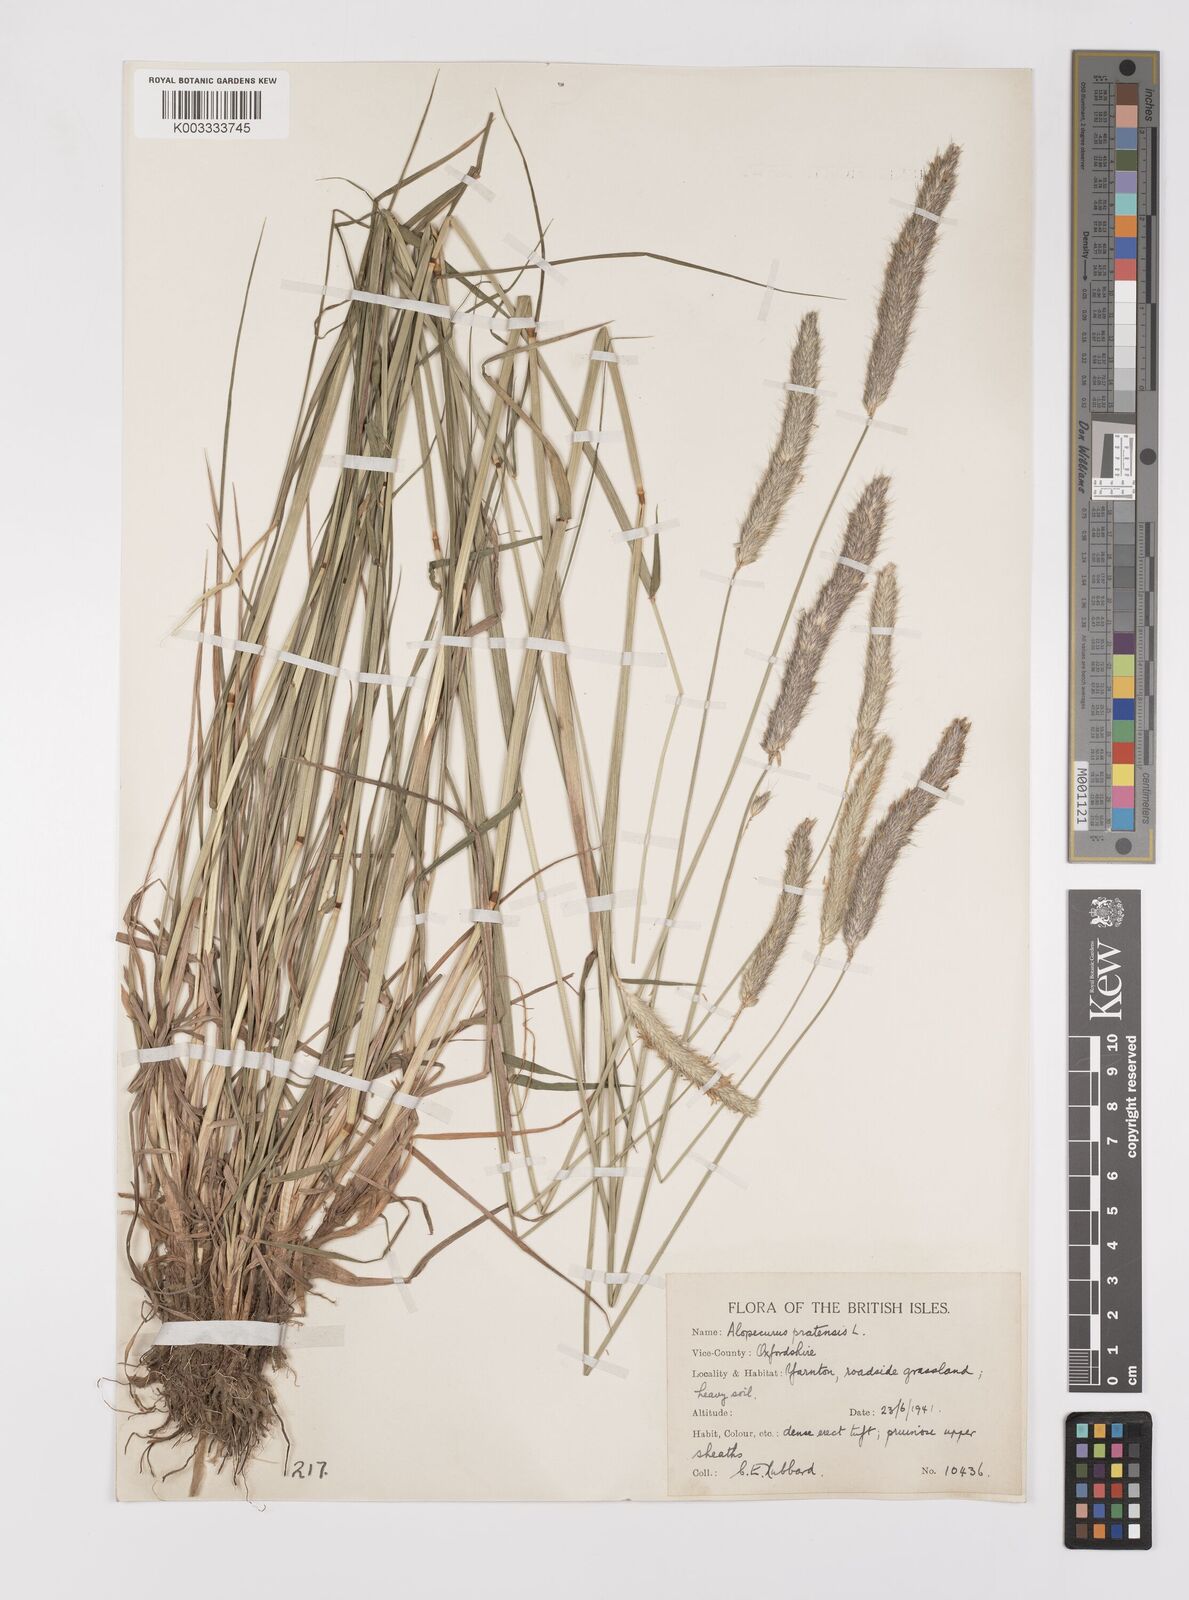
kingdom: Plantae
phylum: Tracheophyta
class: Liliopsida
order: Poales
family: Poaceae
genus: Alopecurus
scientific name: Alopecurus pratensis
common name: Meadow foxtail
